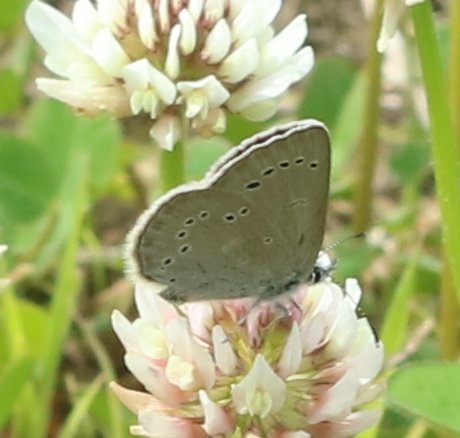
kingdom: Animalia
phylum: Arthropoda
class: Insecta
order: Lepidoptera
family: Lycaenidae
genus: Glaucopsyche
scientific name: Glaucopsyche lygdamus
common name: Silvery Blue
